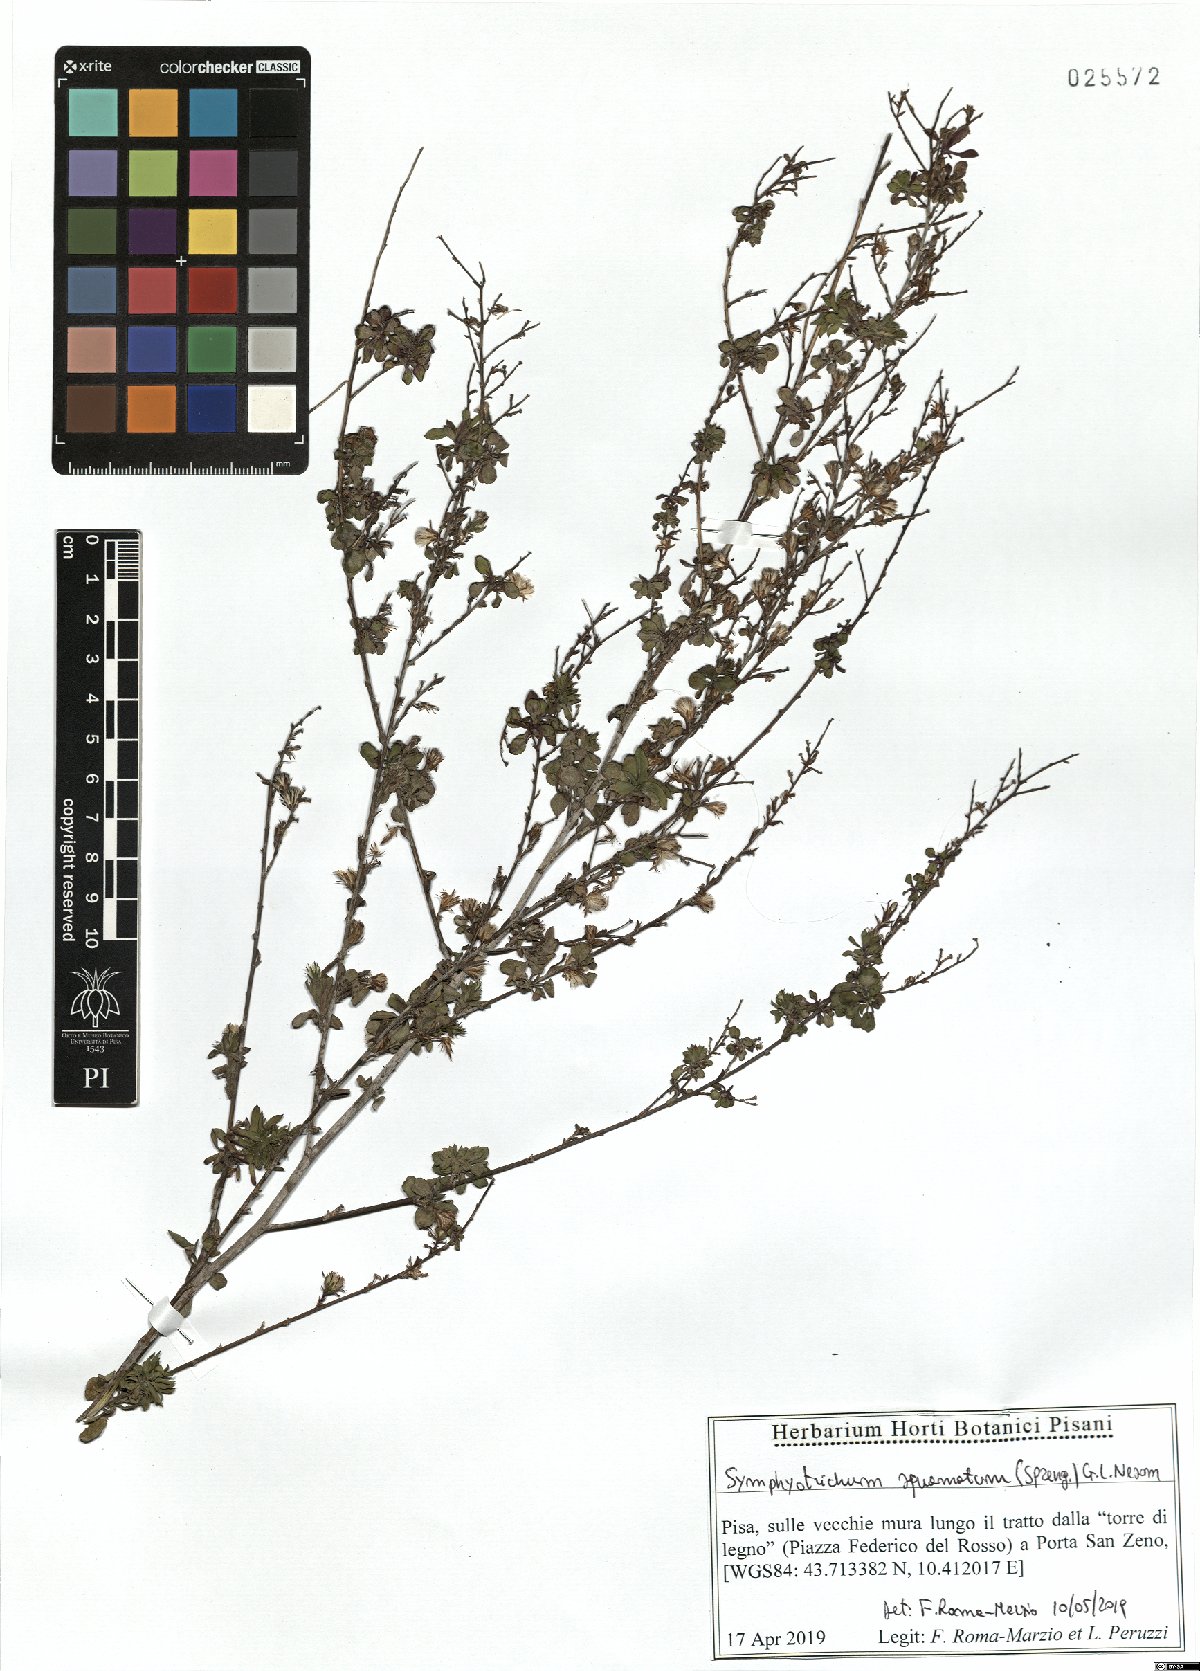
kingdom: Plantae
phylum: Tracheophyta
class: Magnoliopsida
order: Asterales
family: Asteraceae
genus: Symphyotrichum
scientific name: Symphyotrichum squamatum
